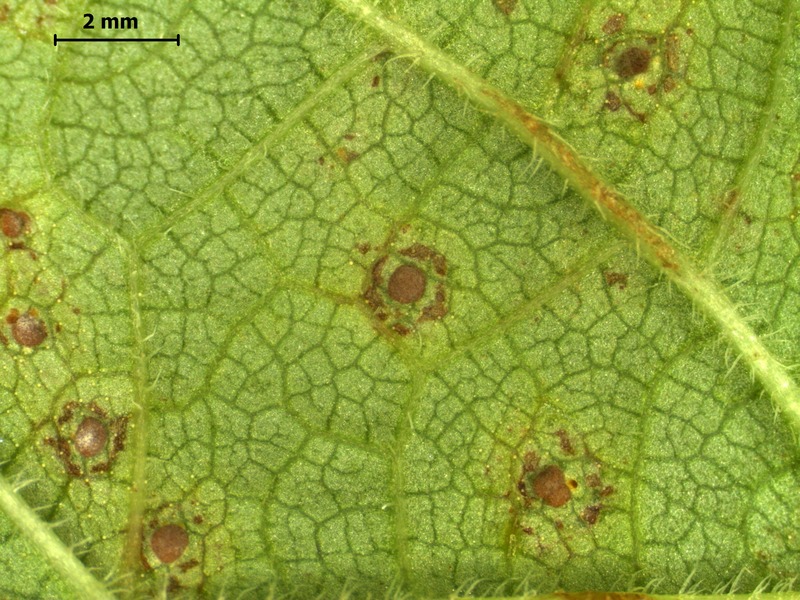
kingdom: Fungi
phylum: Basidiomycota
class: Pucciniomycetes
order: Pucciniales
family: Pucciniaceae
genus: Puccinia
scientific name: Puccinia salviae
